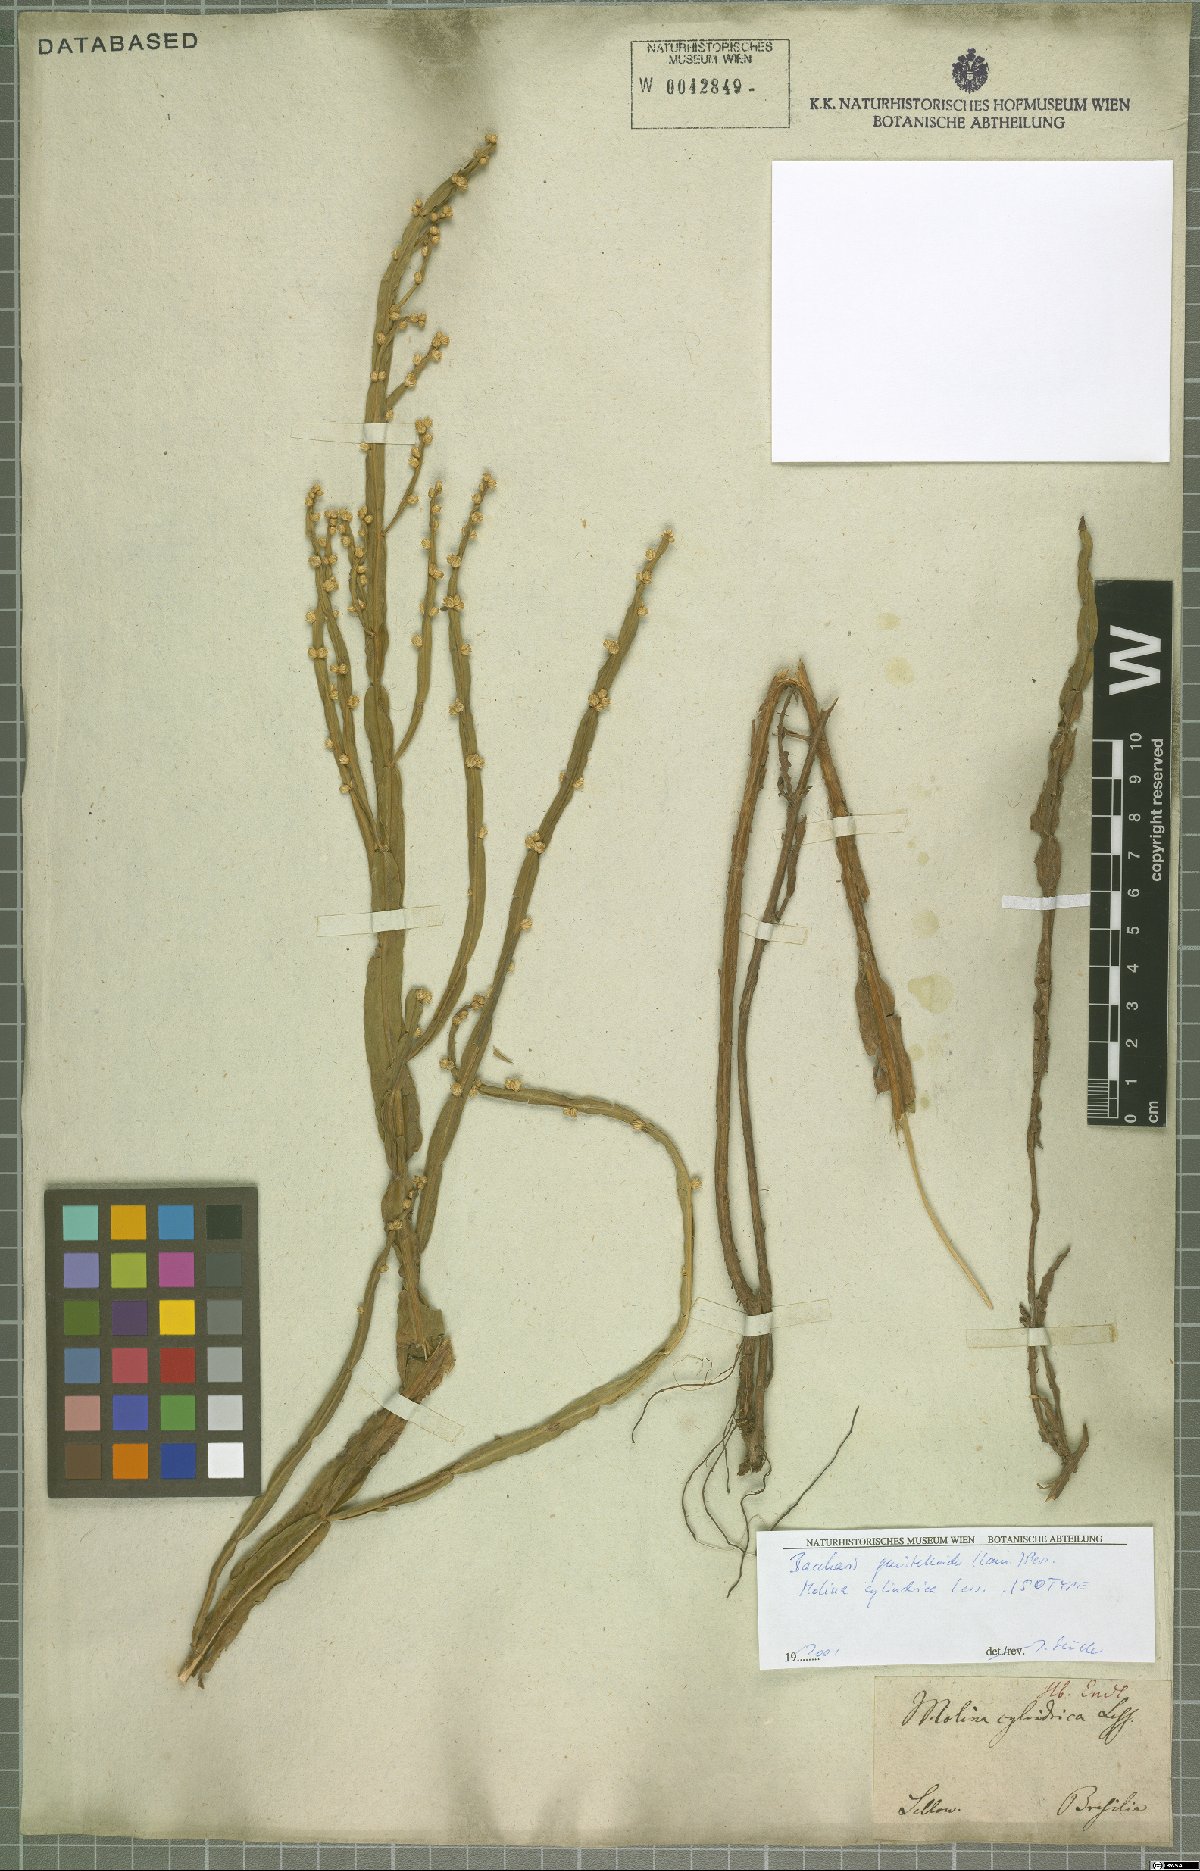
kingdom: Plantae
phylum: Tracheophyta
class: Magnoliopsida
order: Asterales
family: Asteraceae
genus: Baccharis
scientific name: Baccharis genistelloides
